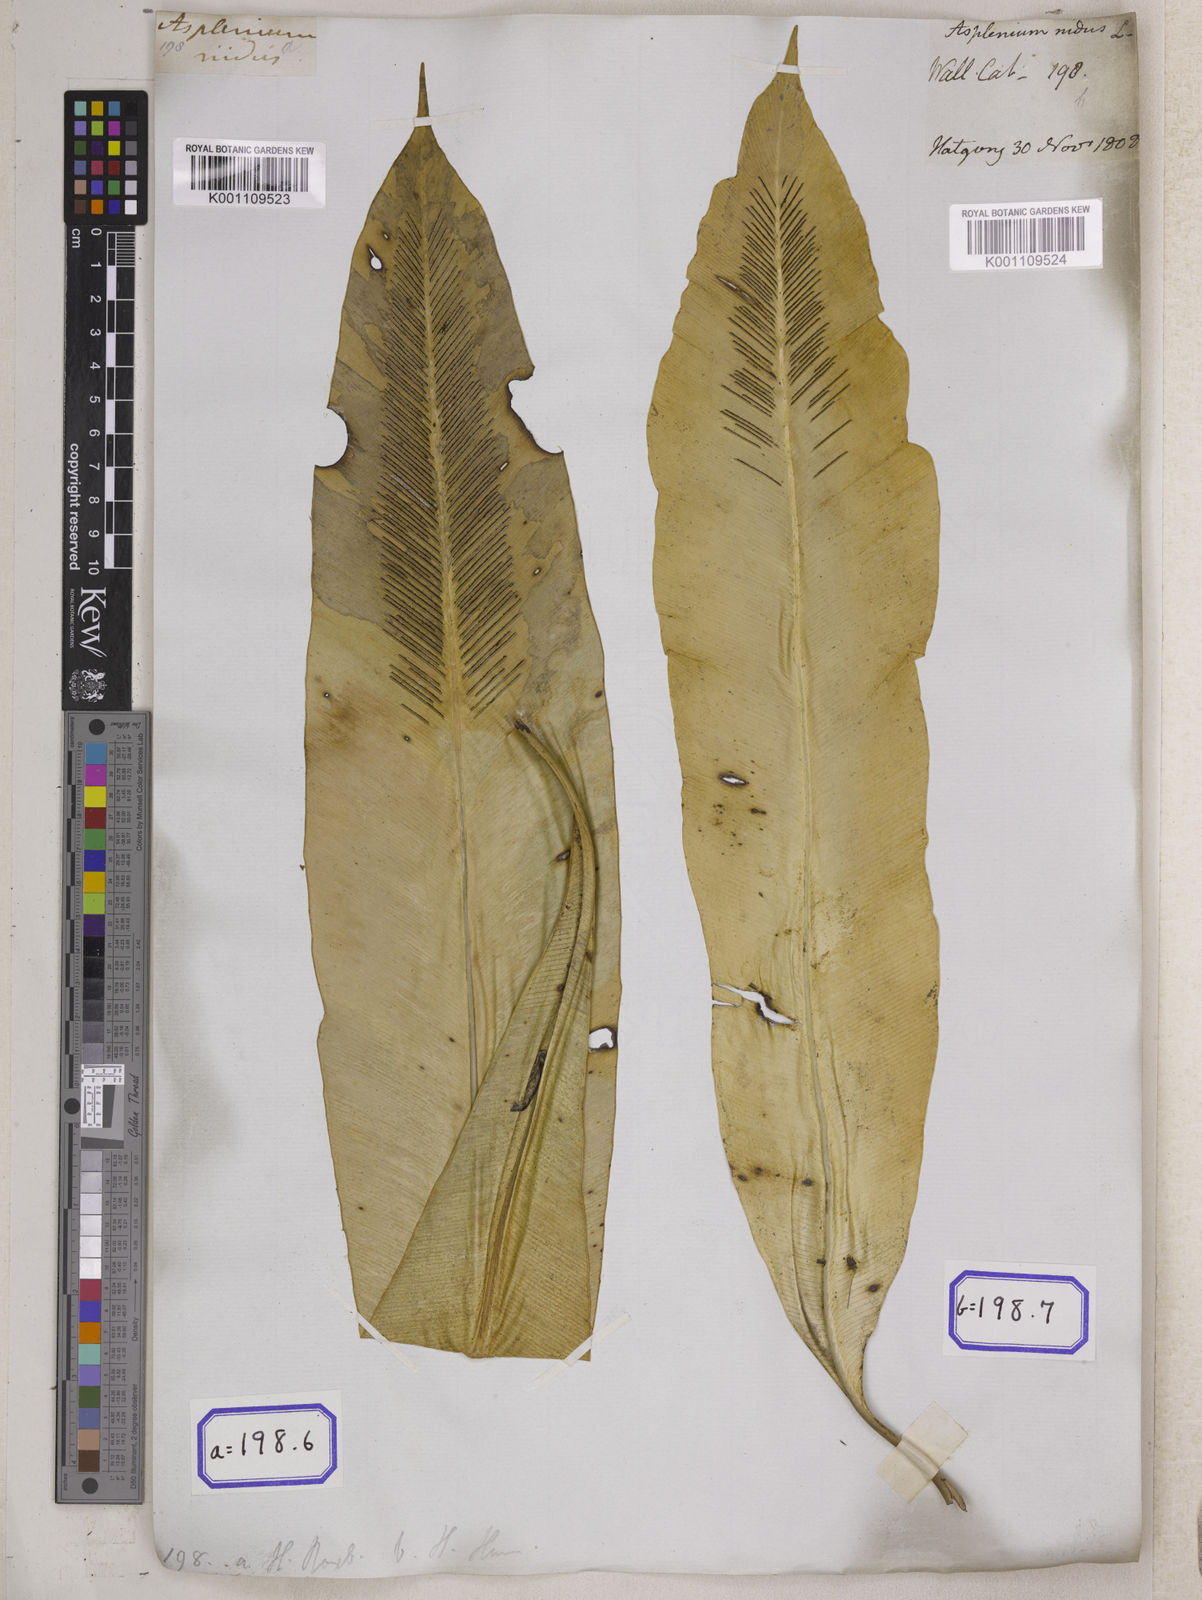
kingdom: Plantae
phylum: Tracheophyta
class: Polypodiopsida
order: Polypodiales
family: Aspleniaceae
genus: Asplenium
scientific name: Asplenium nidus
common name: Bird's-nest fern
